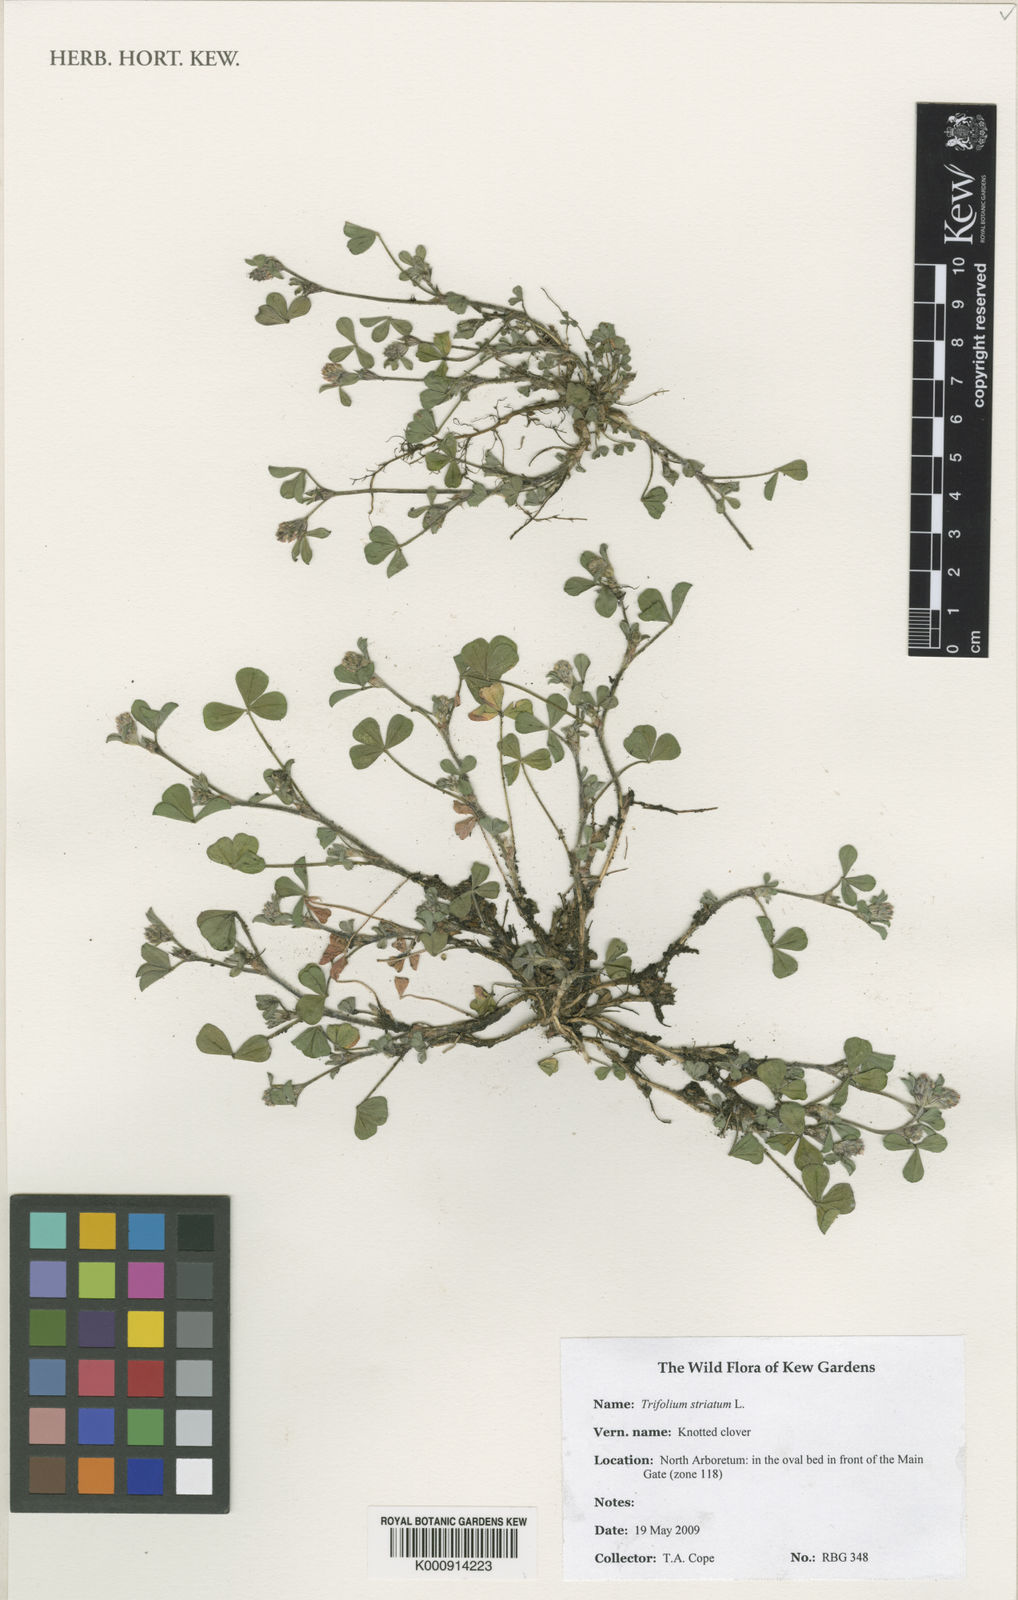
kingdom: Plantae
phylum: Tracheophyta
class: Magnoliopsida
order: Fabales
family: Fabaceae
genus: Trifolium
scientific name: Trifolium striatum
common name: Knotted clover
